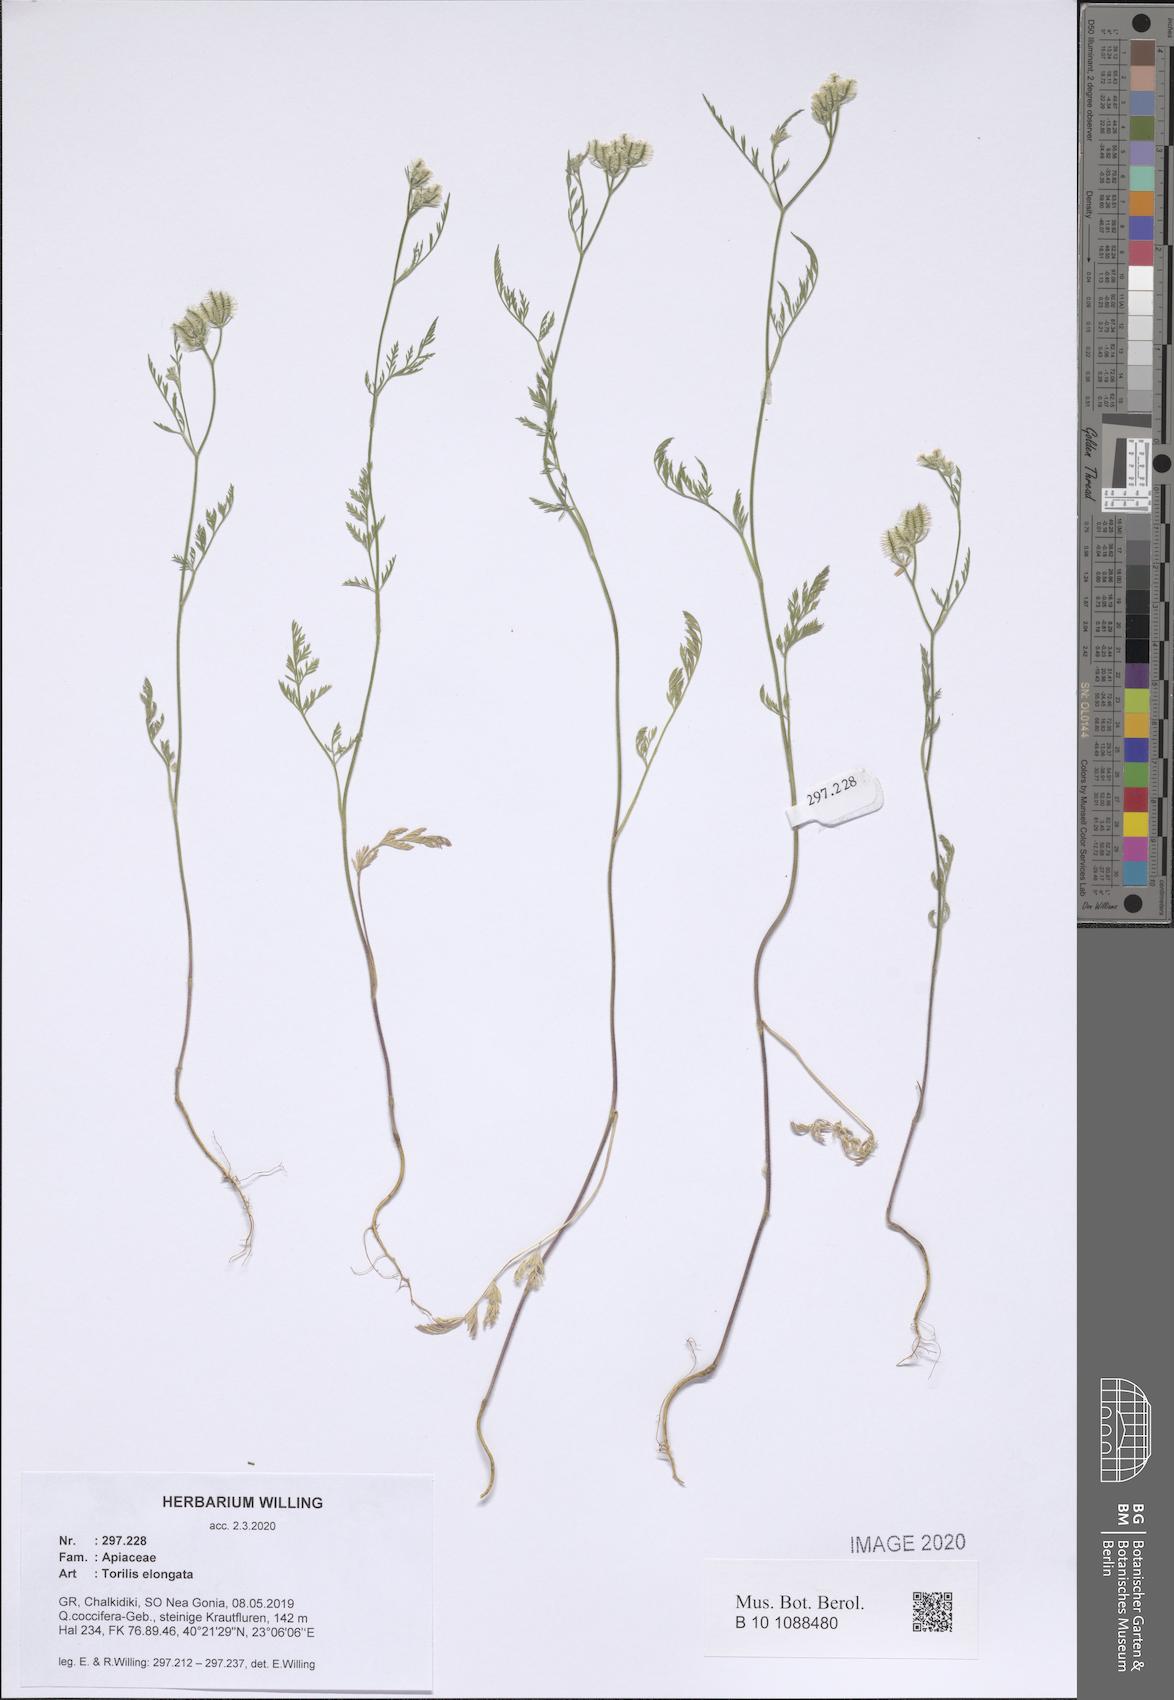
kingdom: Plantae
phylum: Tracheophyta
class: Magnoliopsida
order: Apiales
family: Apiaceae
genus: Torilis
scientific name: Torilis elongata
